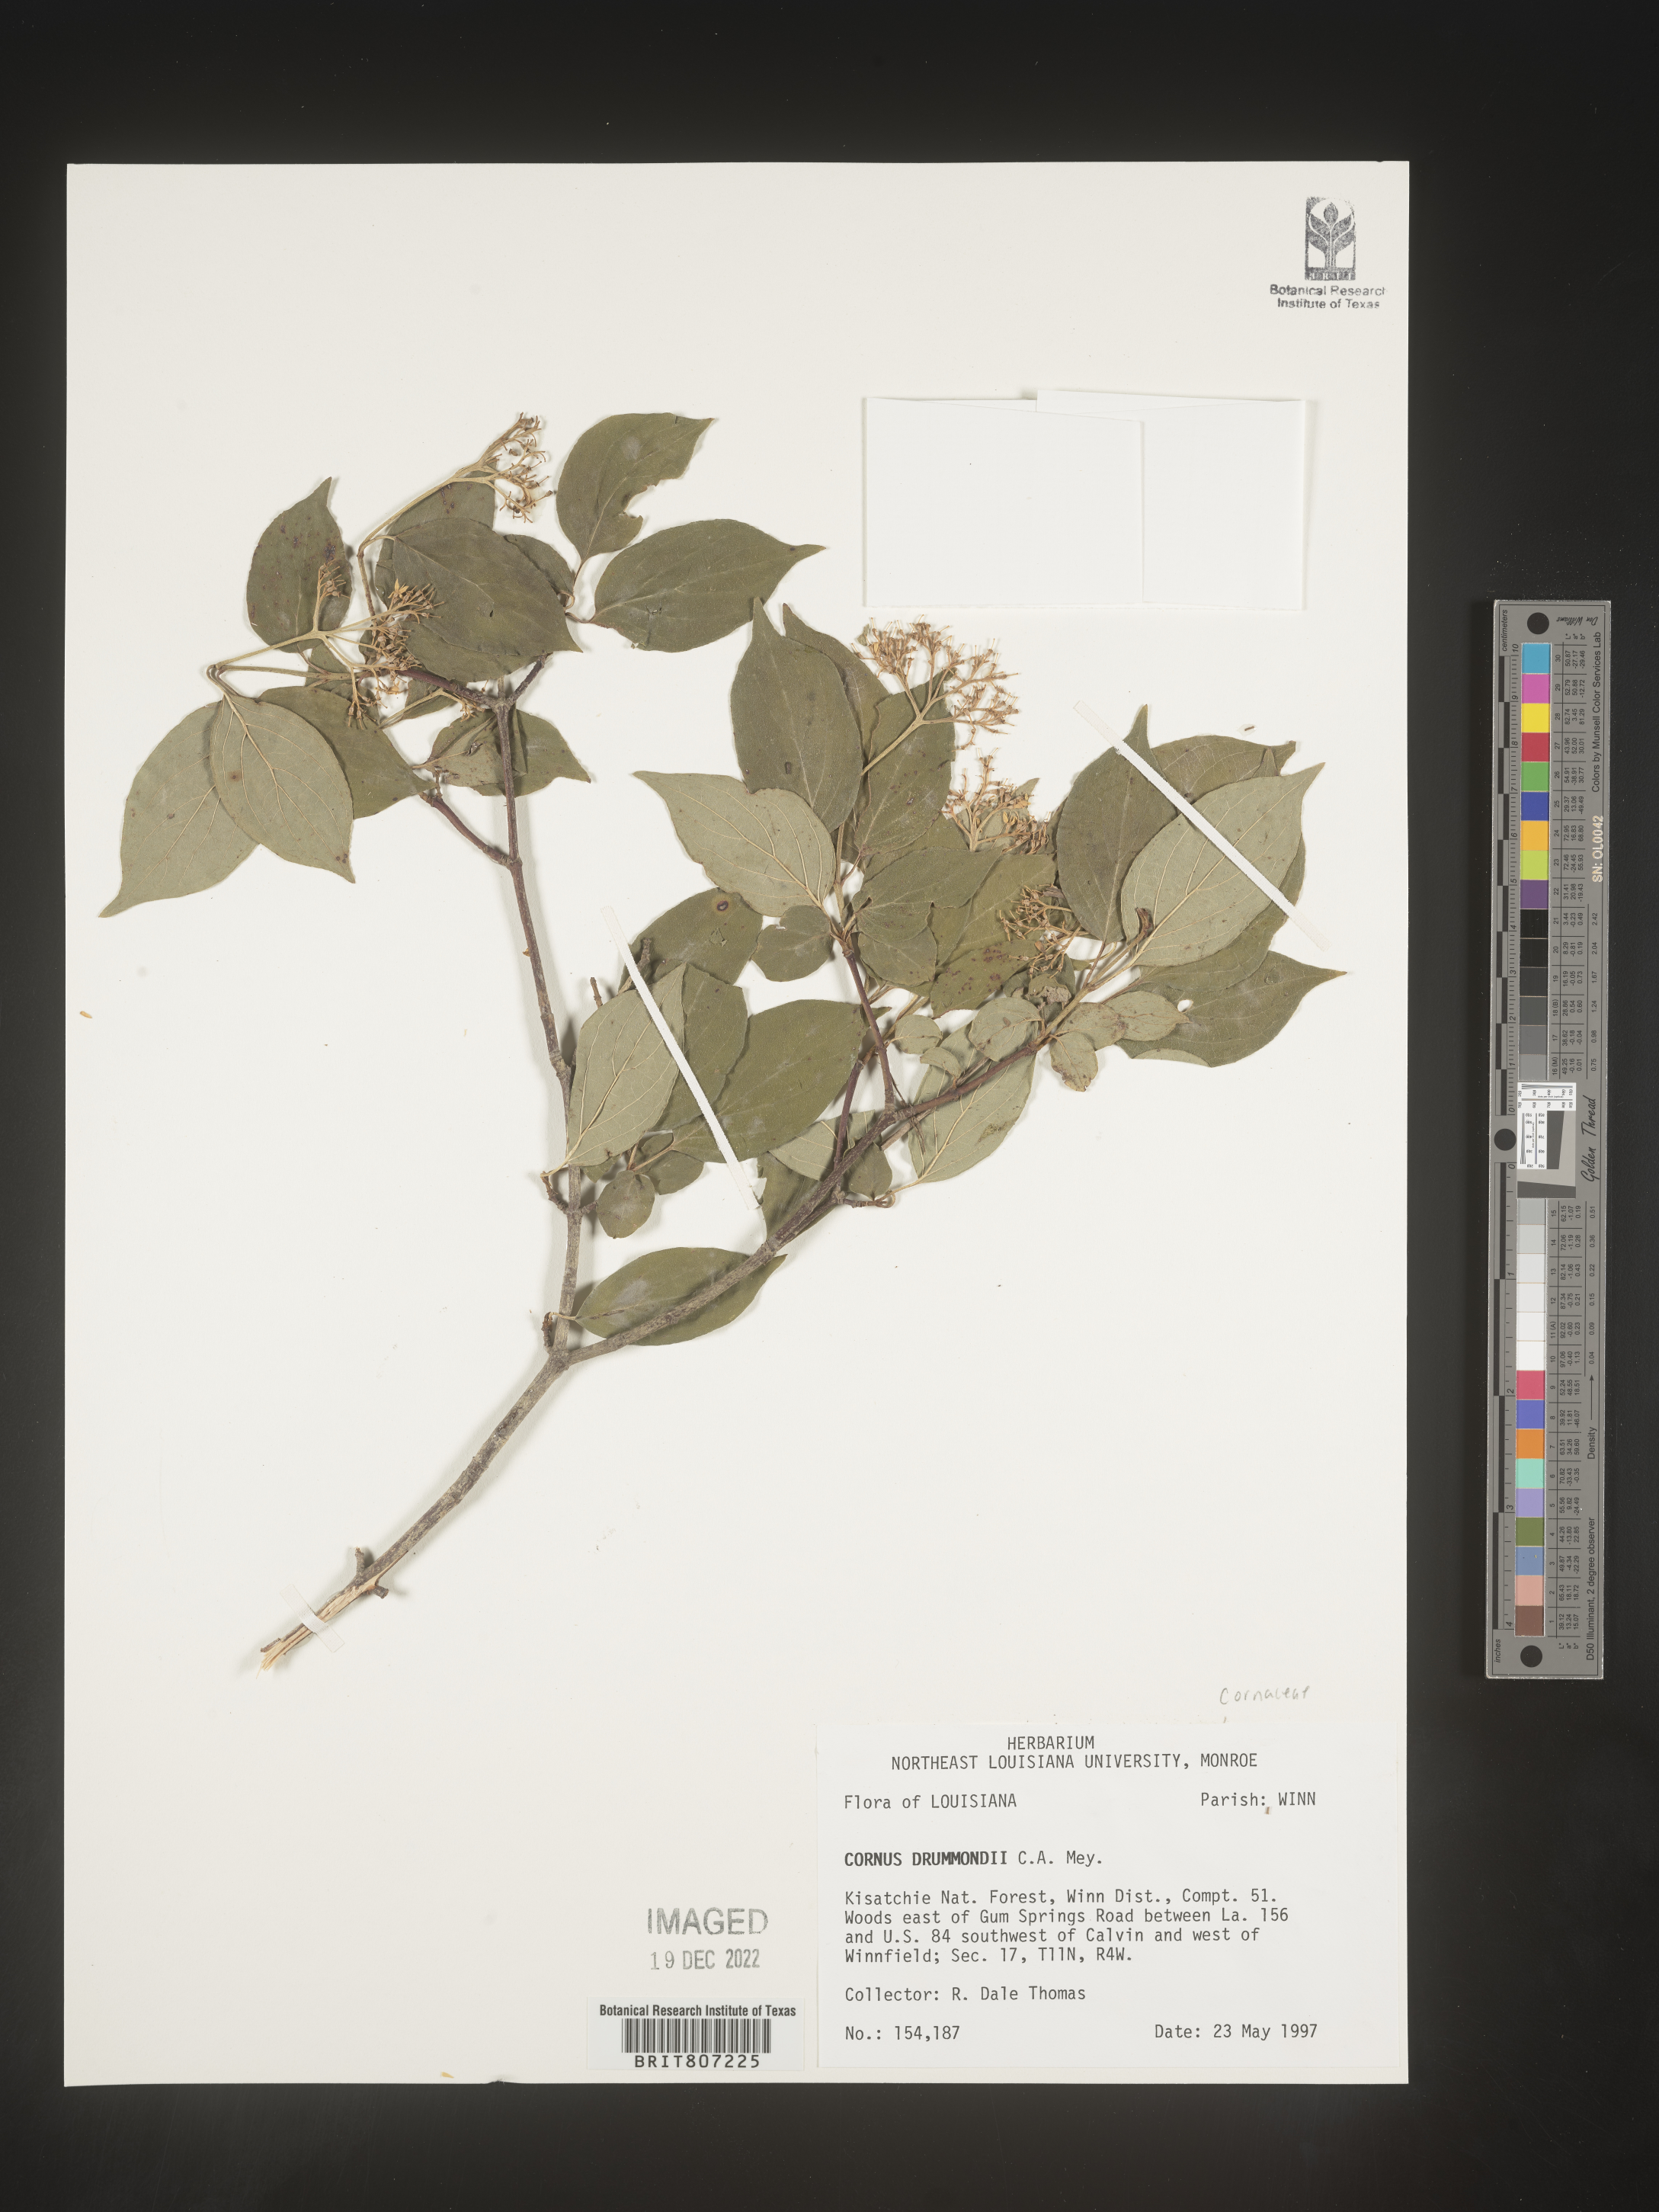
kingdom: Plantae
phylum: Tracheophyta
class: Magnoliopsida
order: Cornales
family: Cornaceae
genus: Cornus
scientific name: Cornus drummondii
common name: Rough-leaf dogwood
